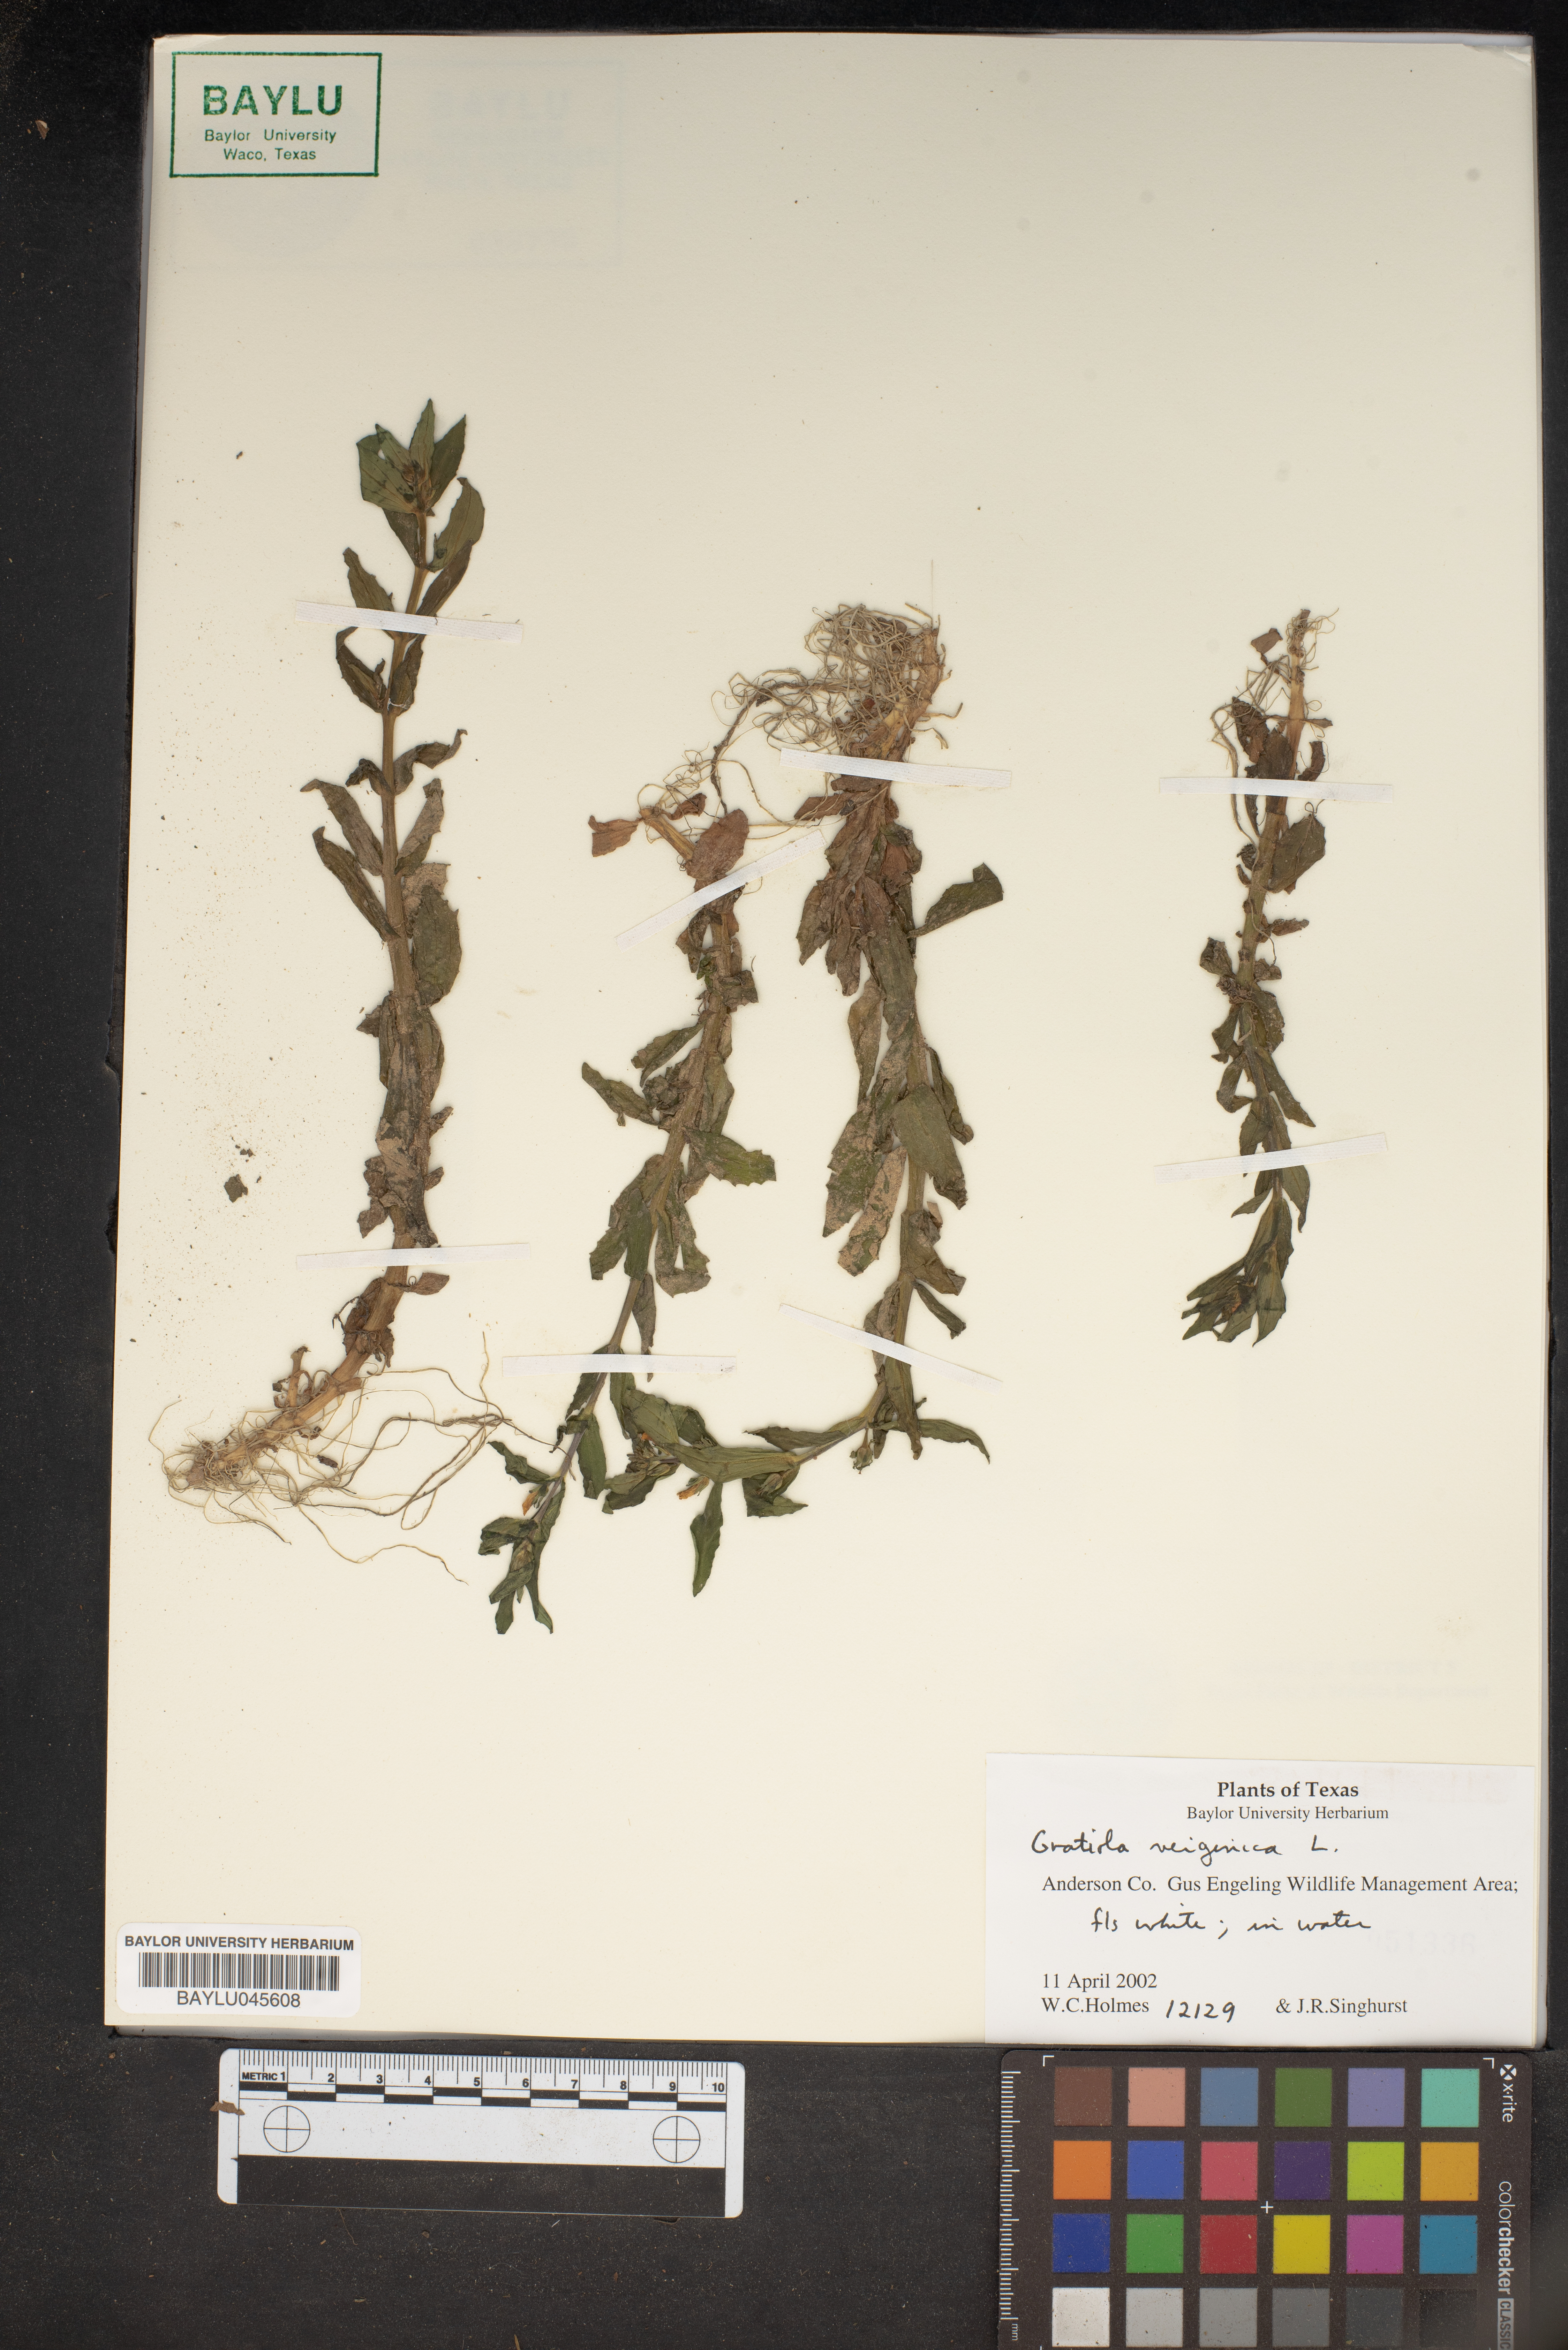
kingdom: Plantae
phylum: Tracheophyta
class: Magnoliopsida
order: Lamiales
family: Plantaginaceae
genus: Gratiola
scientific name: Gratiola virginica
